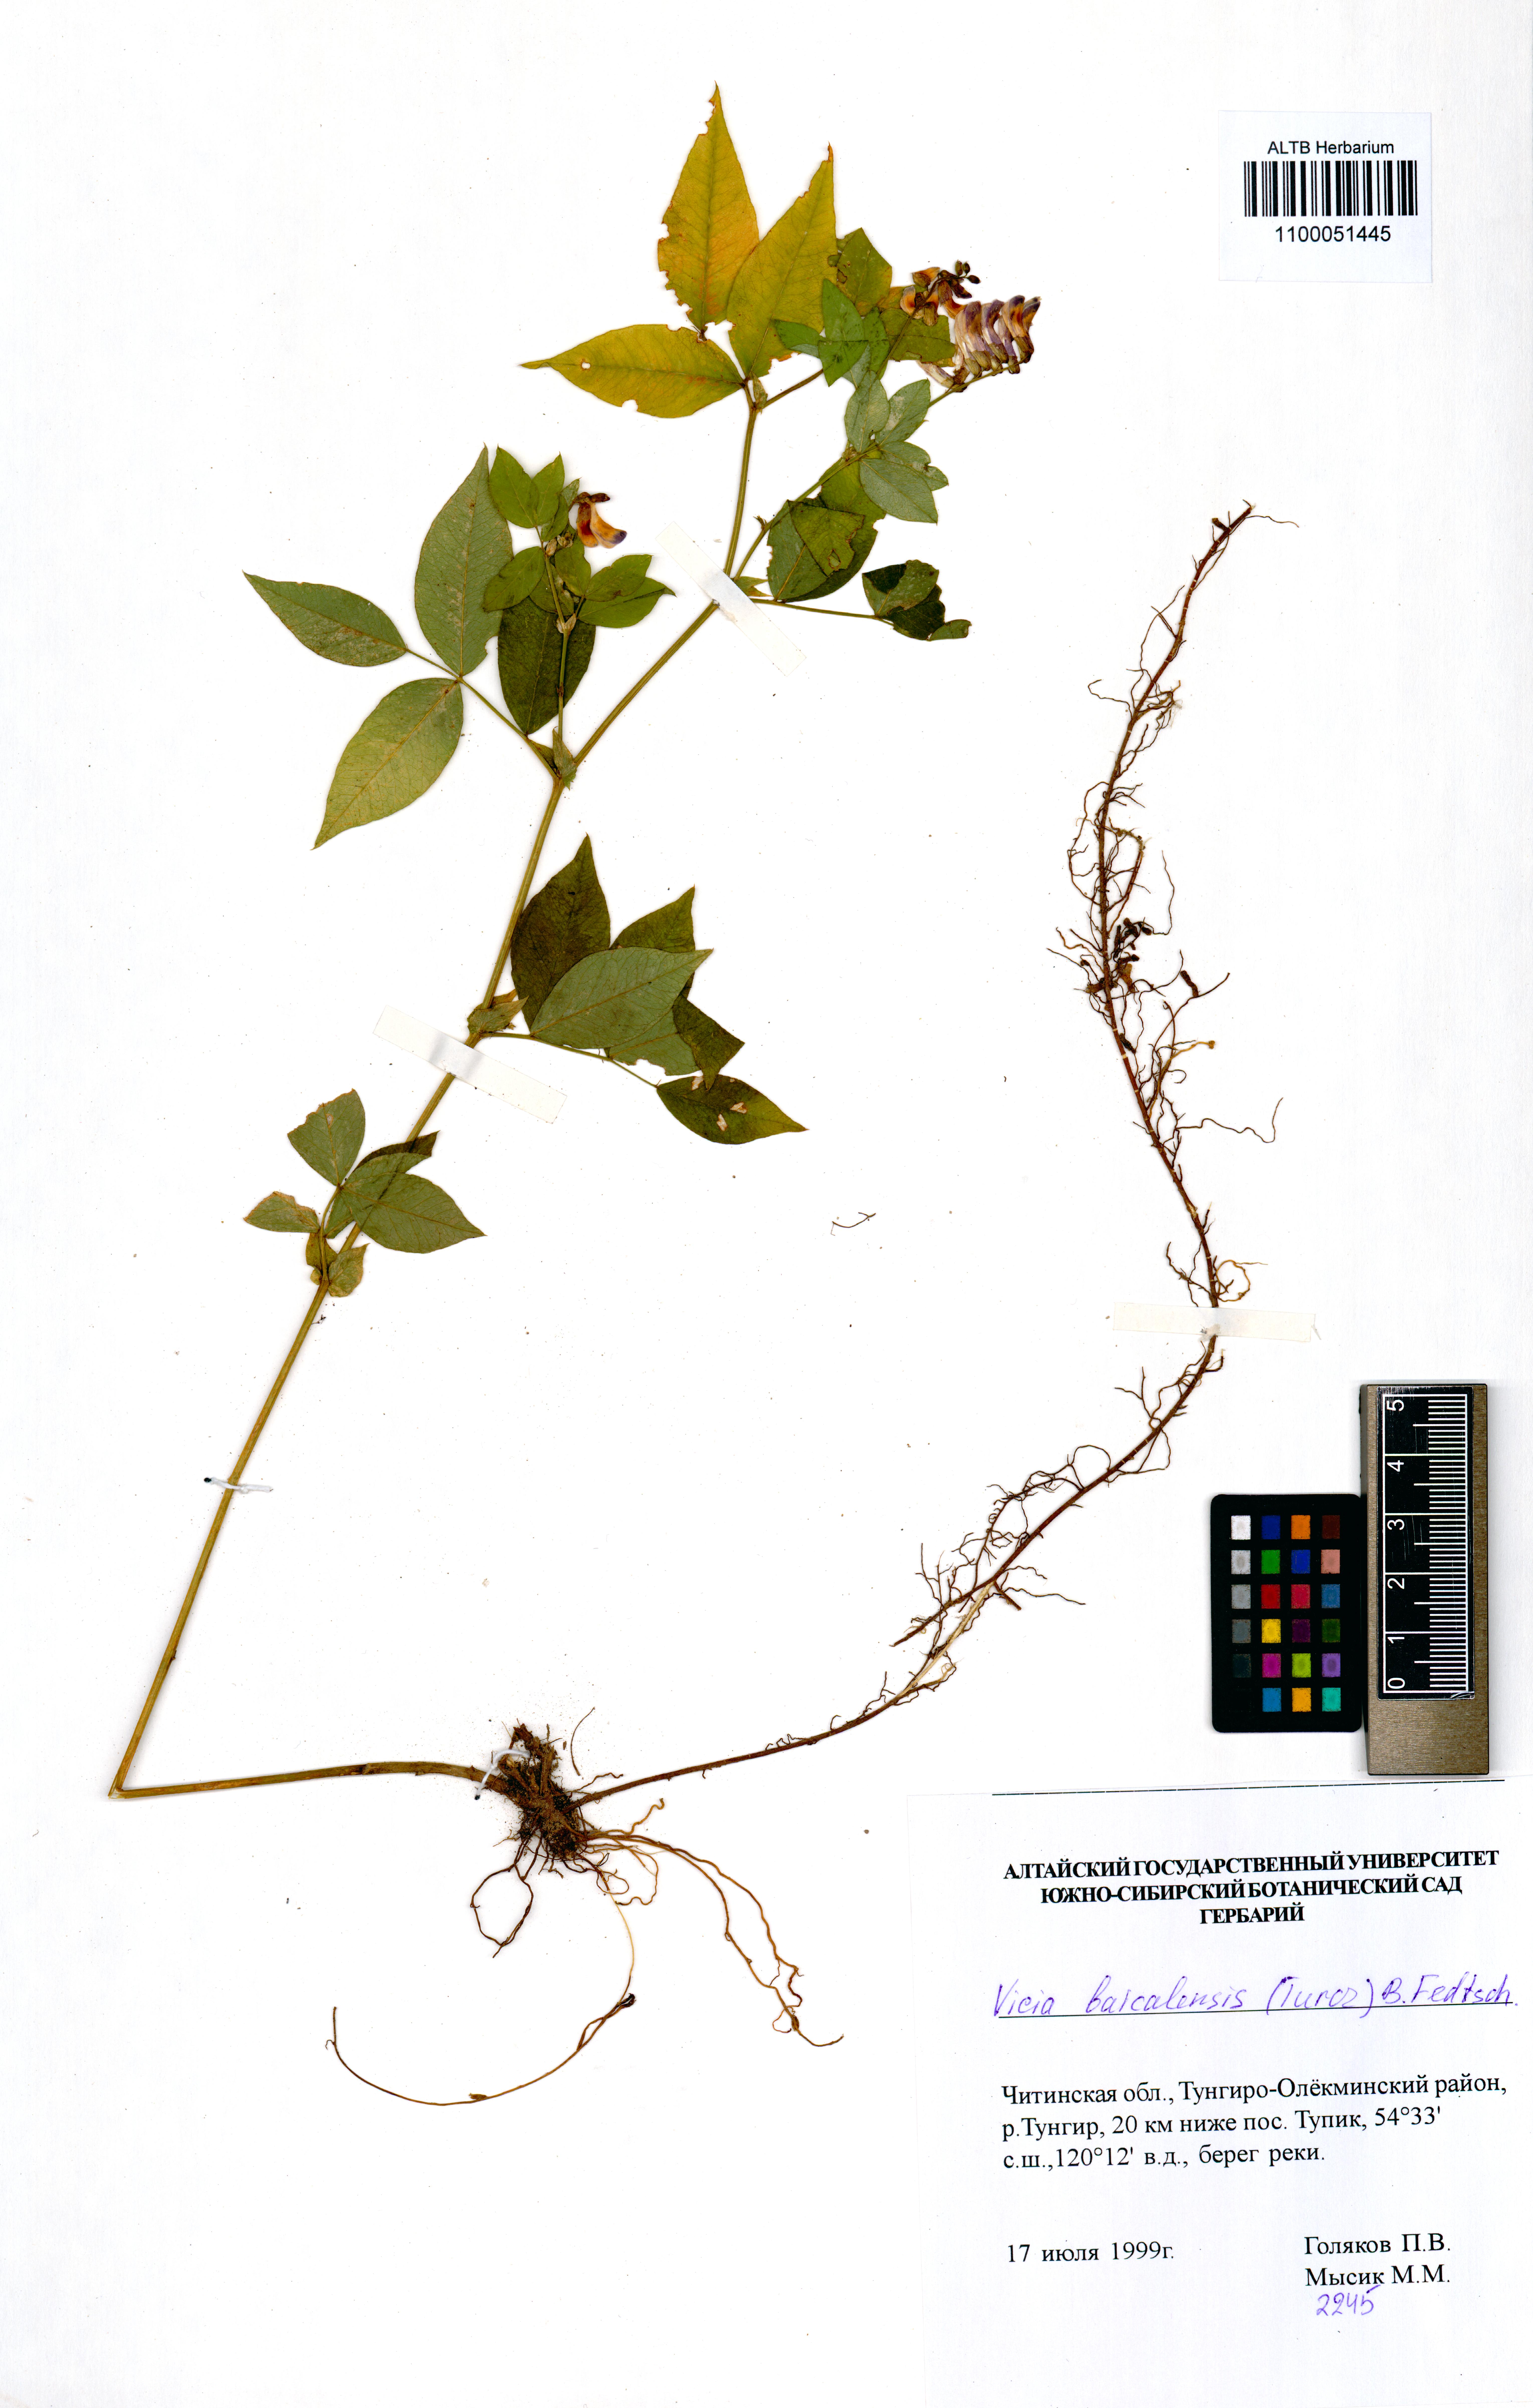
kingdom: Plantae
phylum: Tracheophyta
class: Magnoliopsida
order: Fabales
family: Fabaceae
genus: Vicia
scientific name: Vicia ramuliflora
